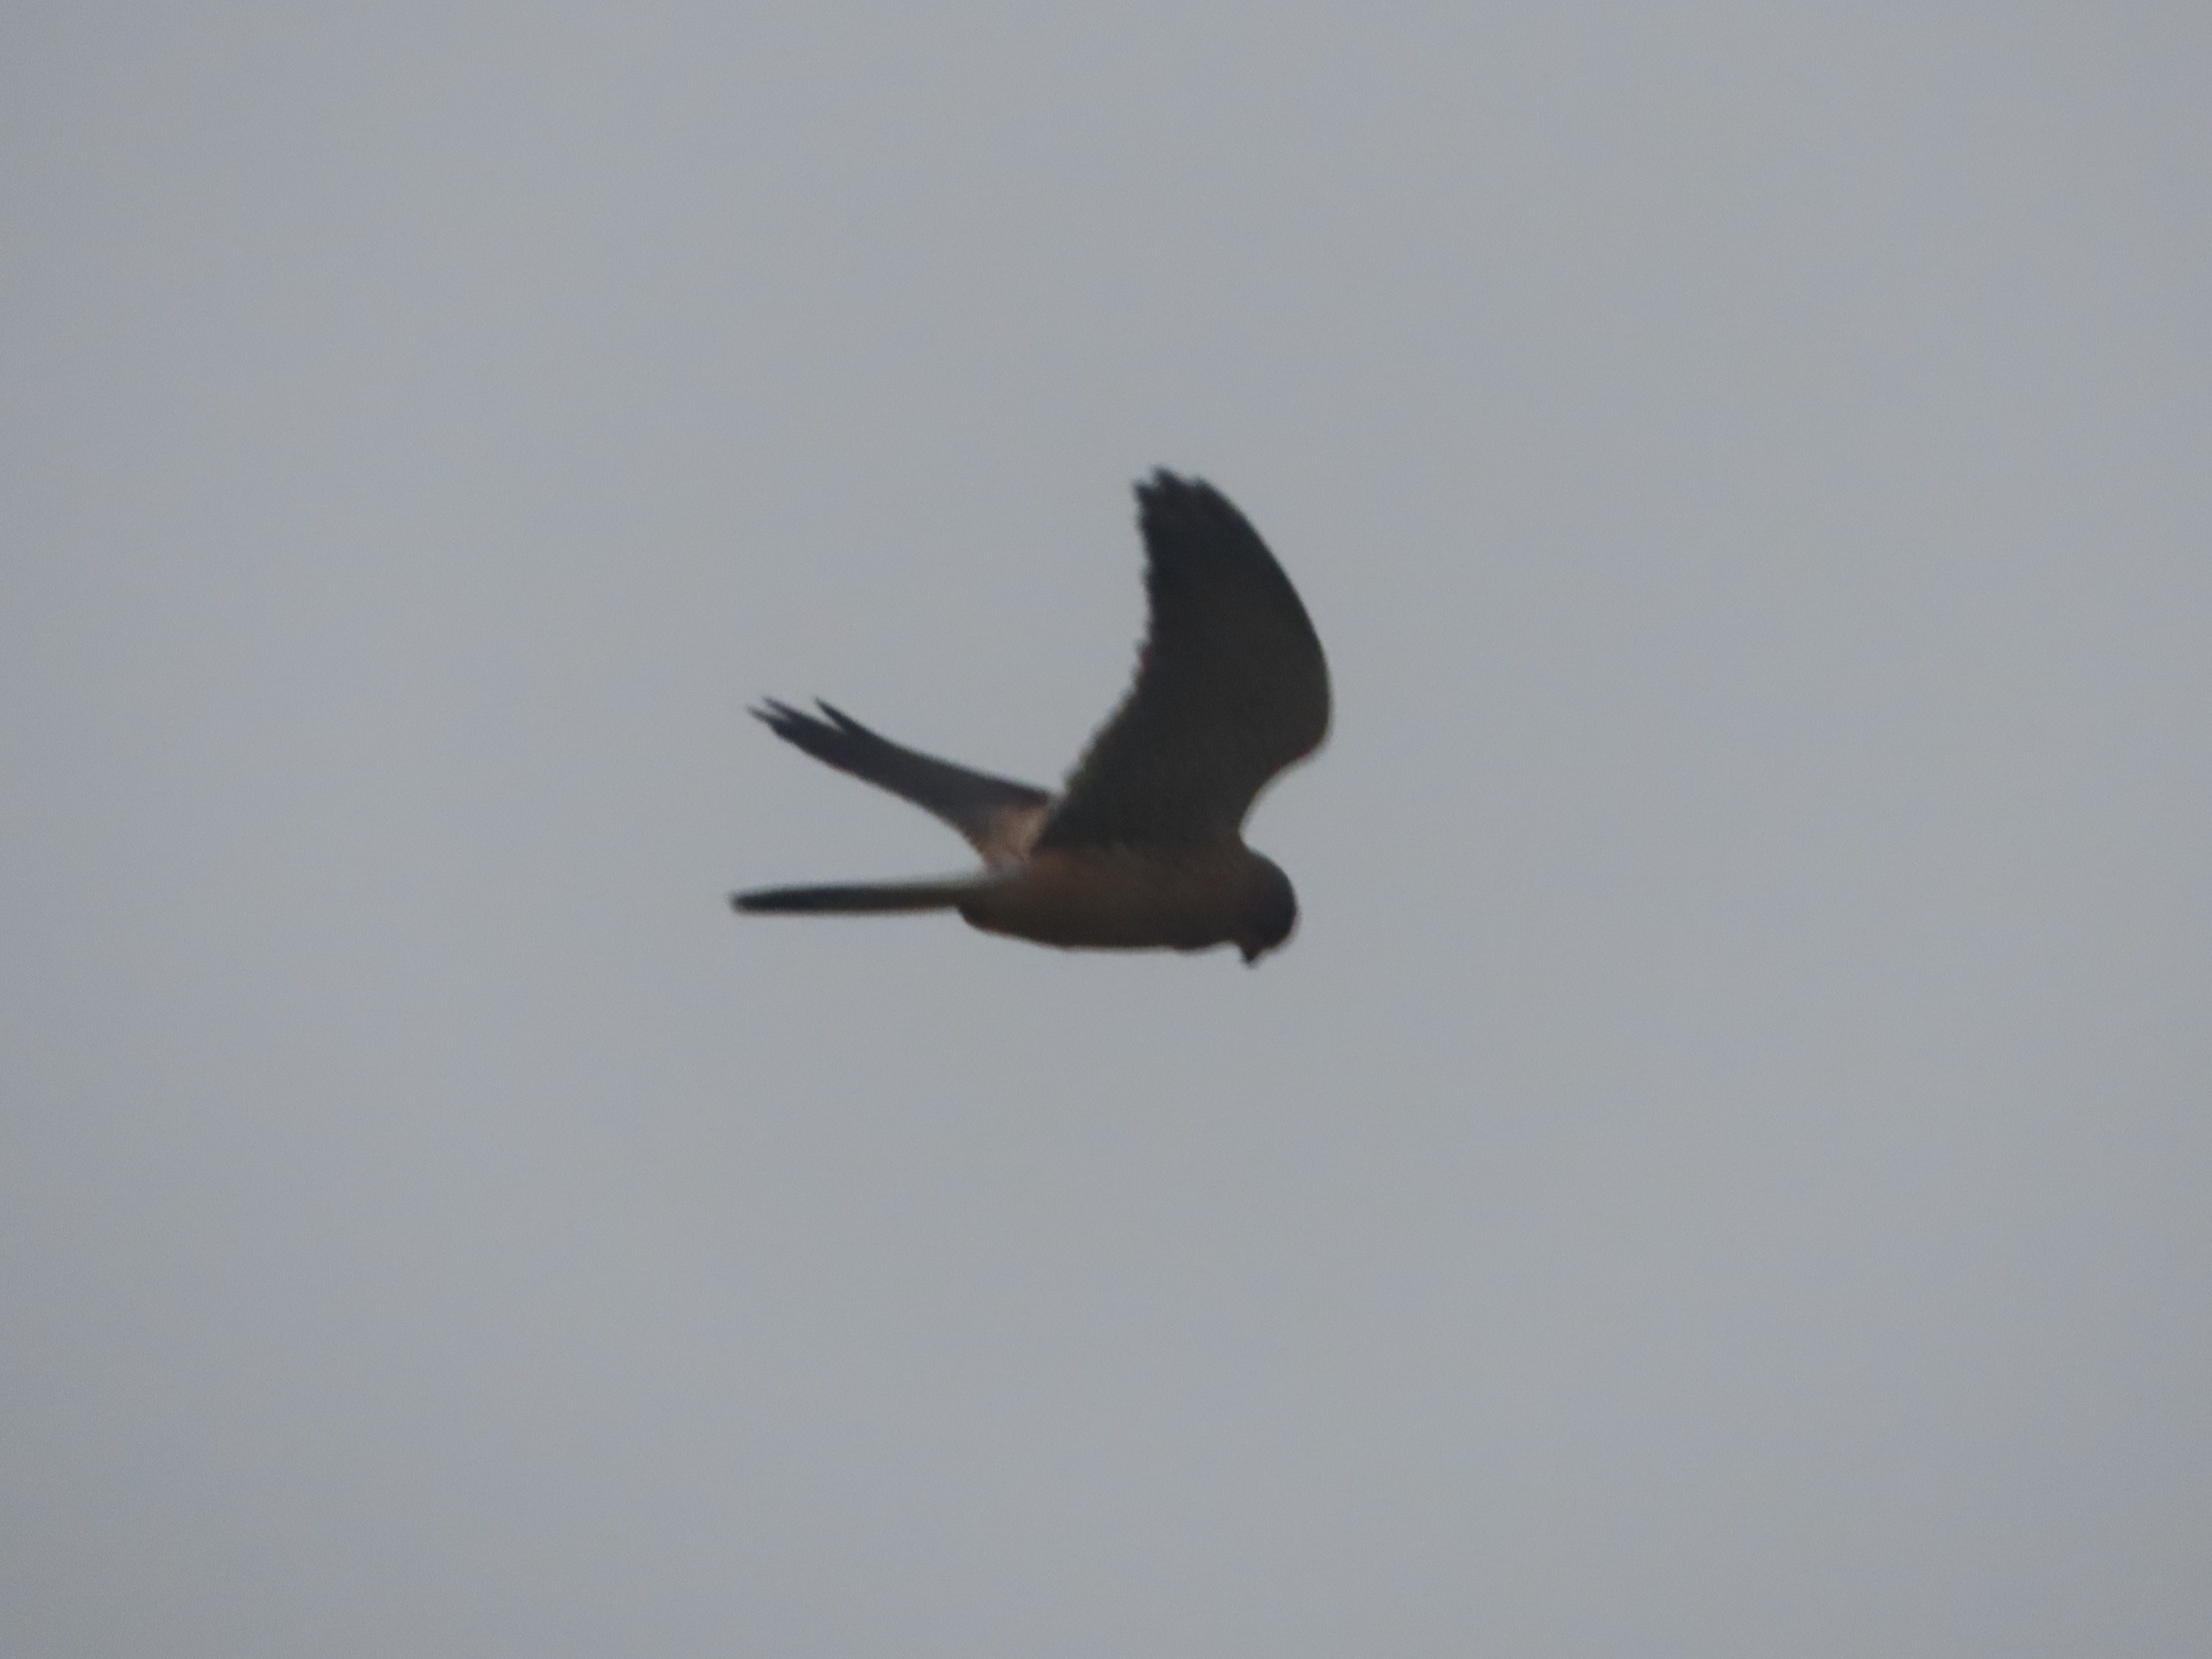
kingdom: Animalia
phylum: Chordata
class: Aves
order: Falconiformes
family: Falconidae
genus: Falco
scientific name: Falco tinnunculus
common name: Tårnfalk
